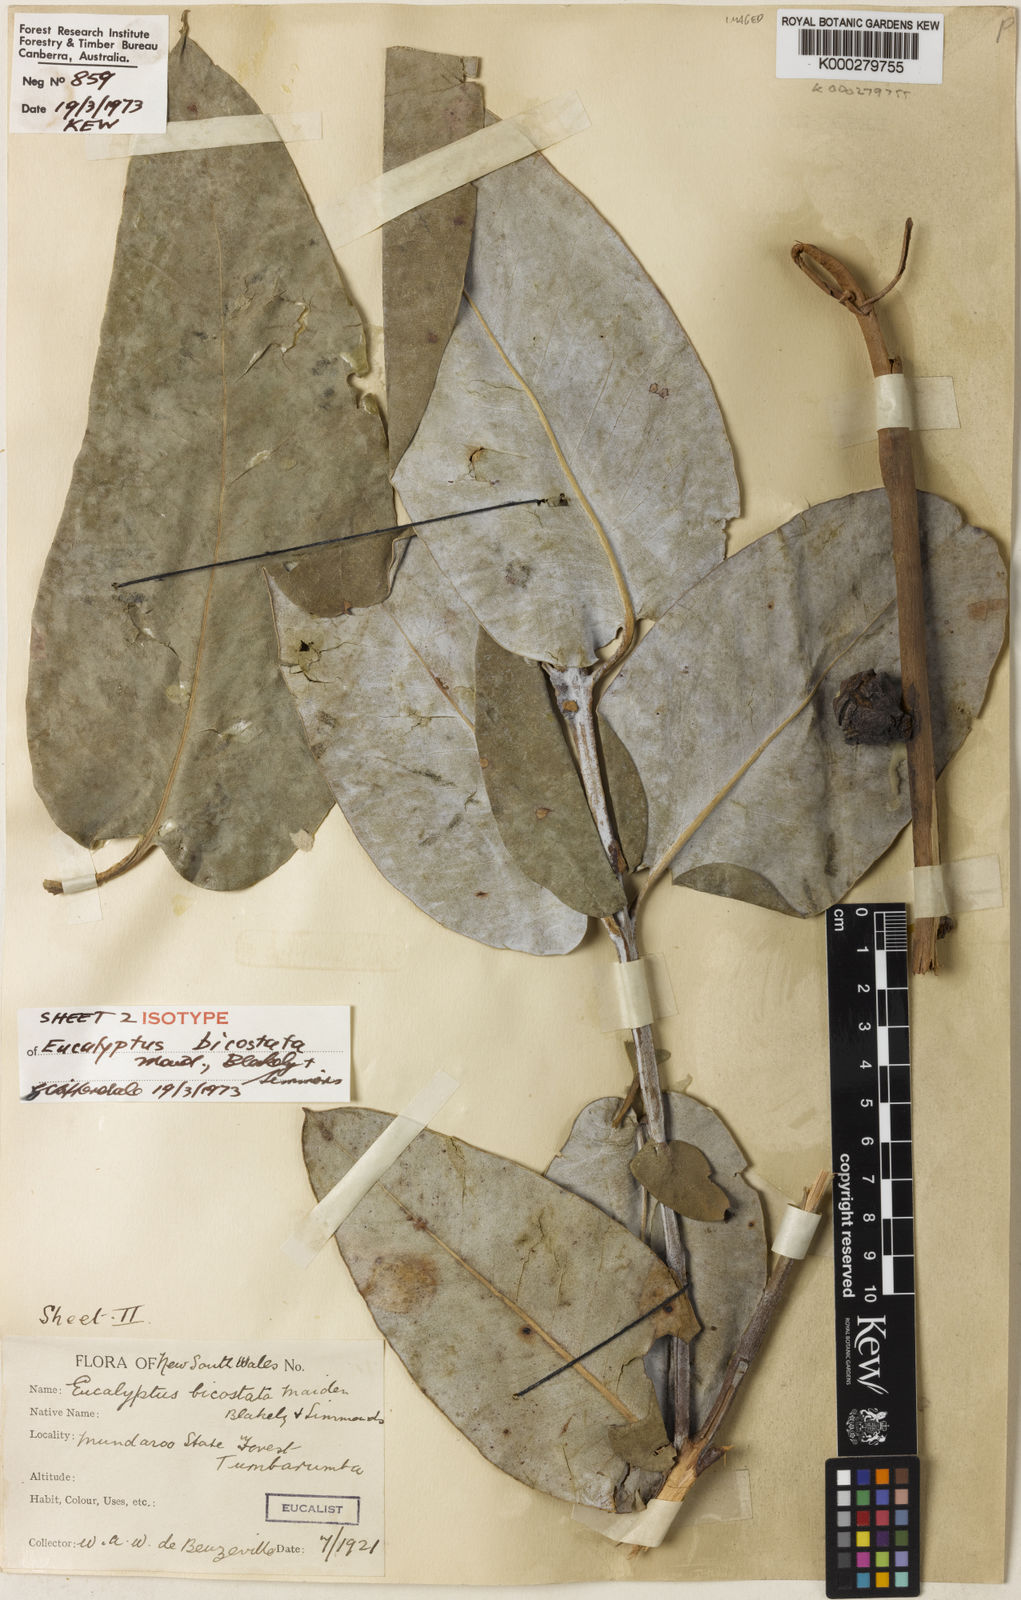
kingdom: Plantae
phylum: Tracheophyta
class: Magnoliopsida
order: Myrtales
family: Myrtaceae
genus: Eucalyptus
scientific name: Eucalyptus globulus
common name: Southern blue-gum
